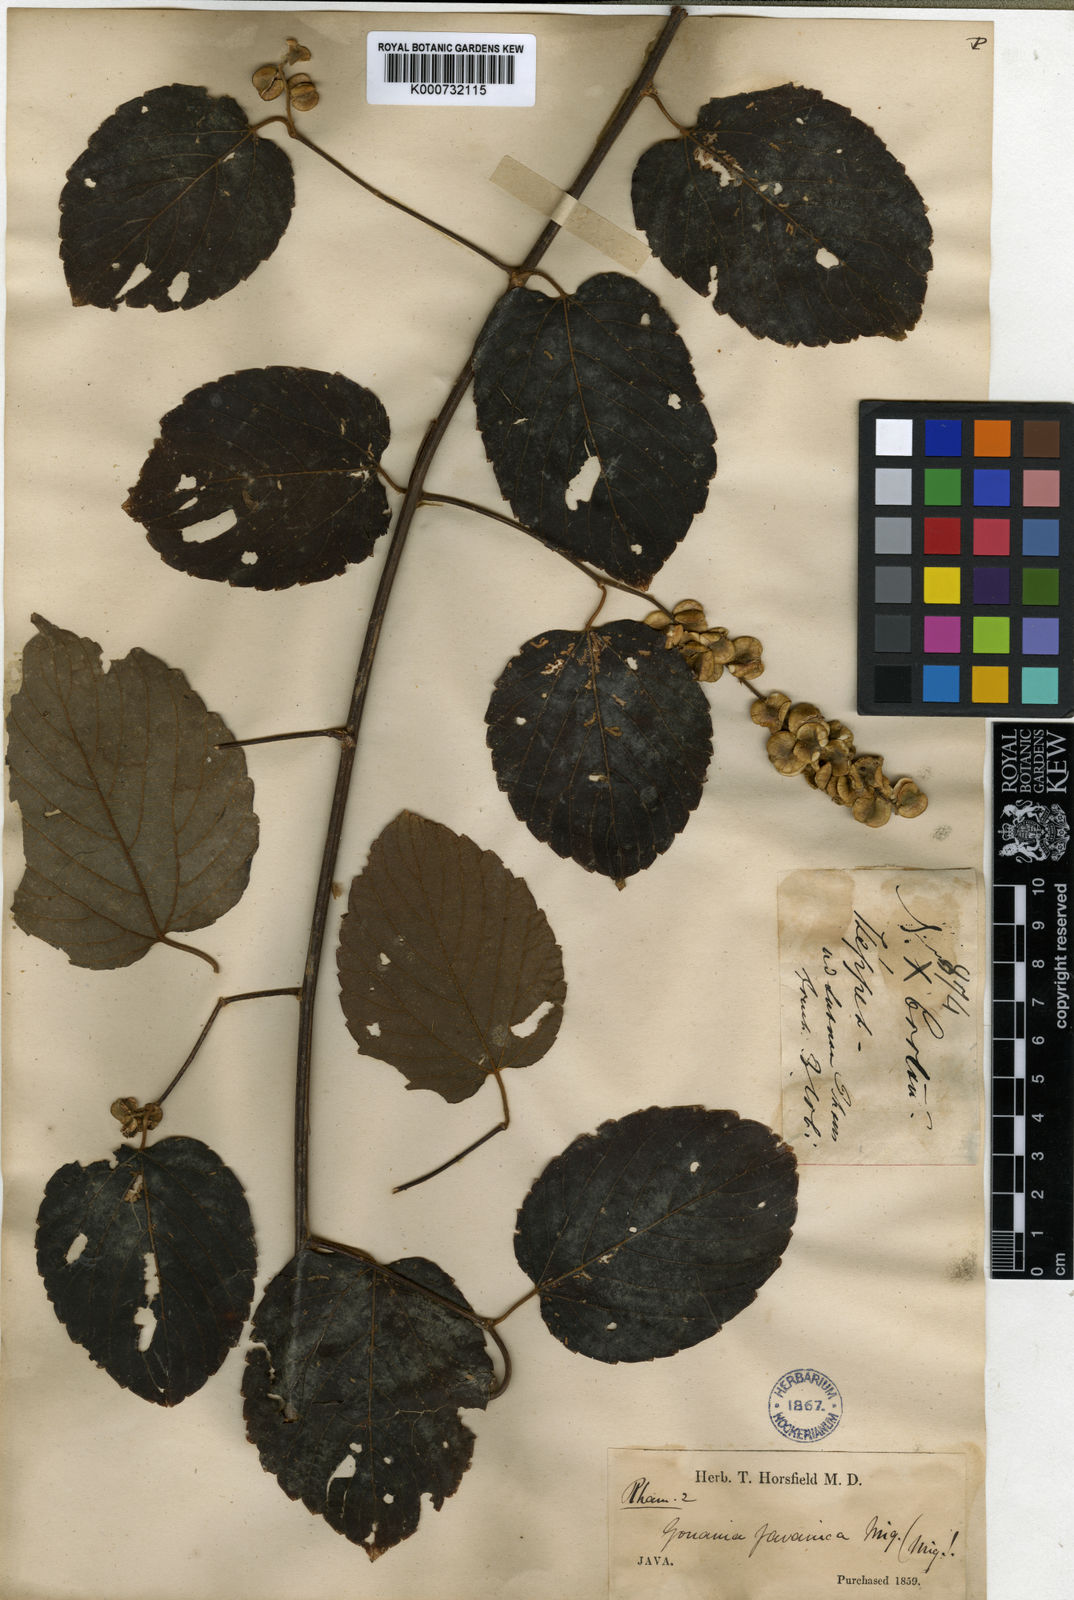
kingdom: Plantae
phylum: Tracheophyta
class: Magnoliopsida
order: Rosales
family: Rhamnaceae
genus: Gouania
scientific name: Gouania obtusifolia
